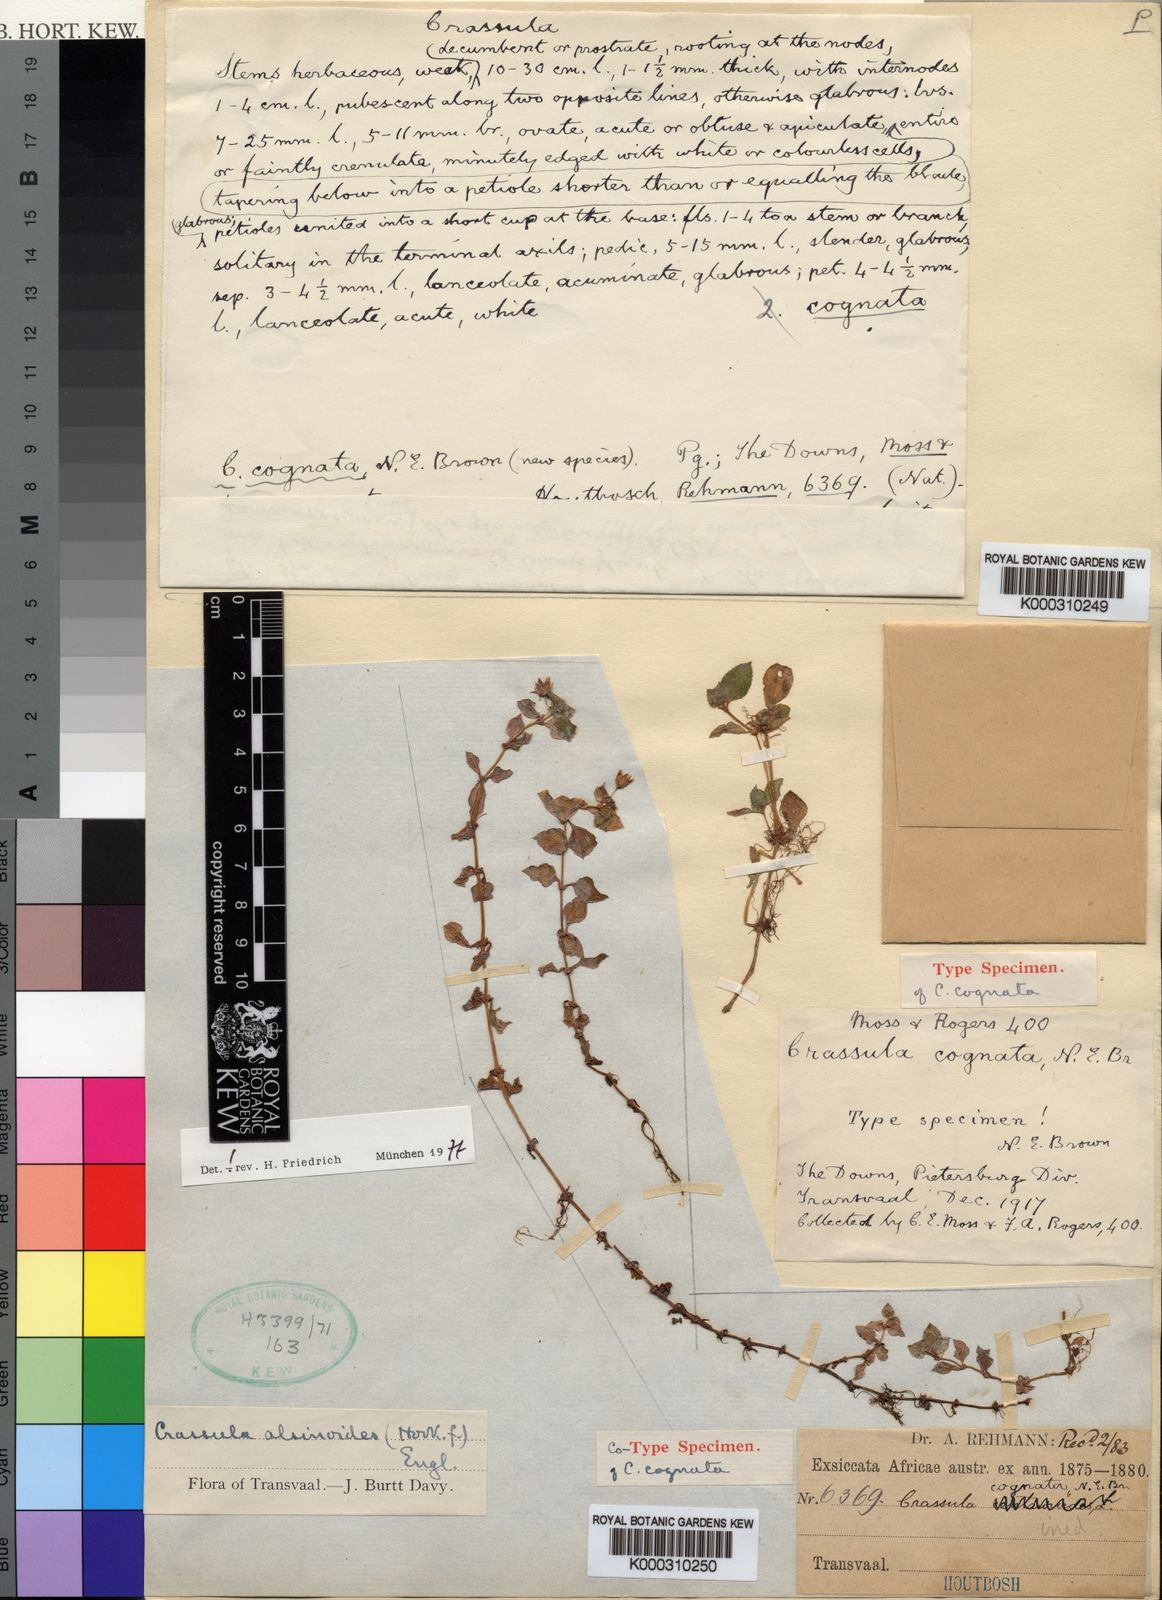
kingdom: Plantae
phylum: Tracheophyta
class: Magnoliopsida
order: Saxifragales
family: Crassulaceae
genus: Crassula
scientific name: Crassula pellucida
